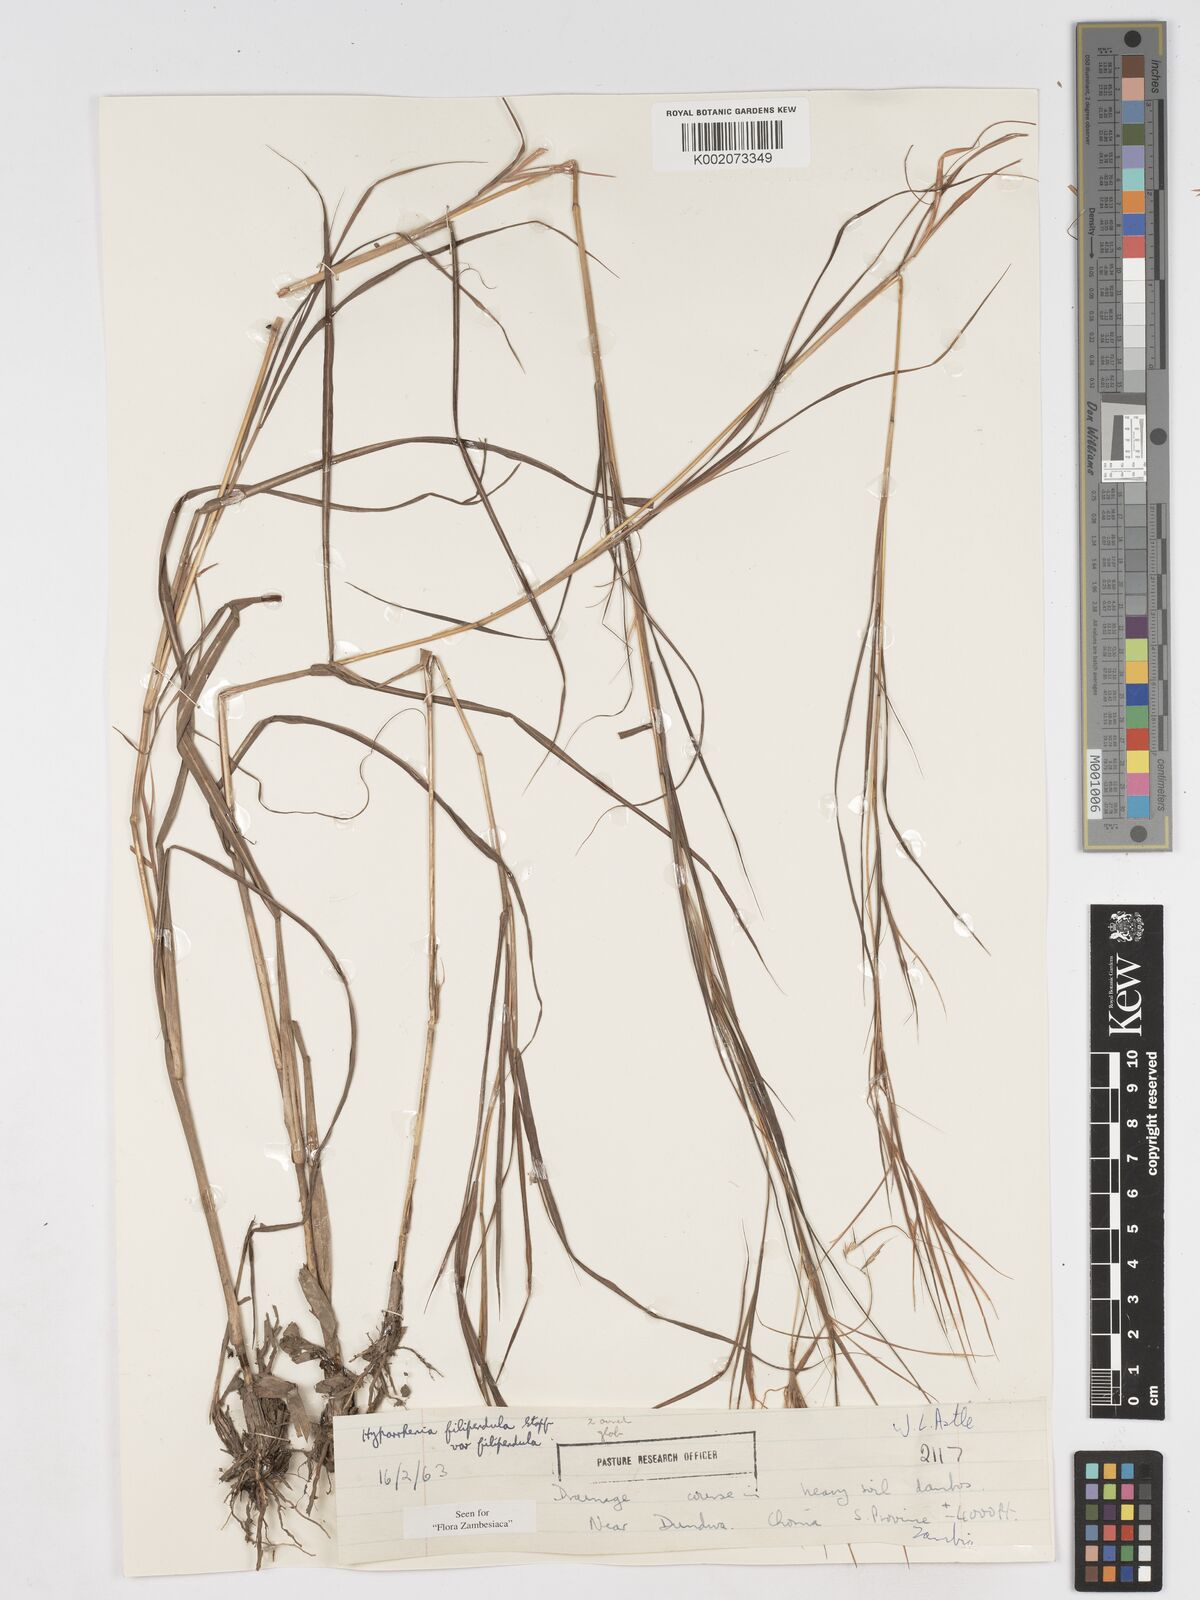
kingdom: Plantae
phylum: Tracheophyta
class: Liliopsida
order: Poales
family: Poaceae
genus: Hyparrhenia
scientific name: Hyparrhenia filipendula
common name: Tambookie grass
